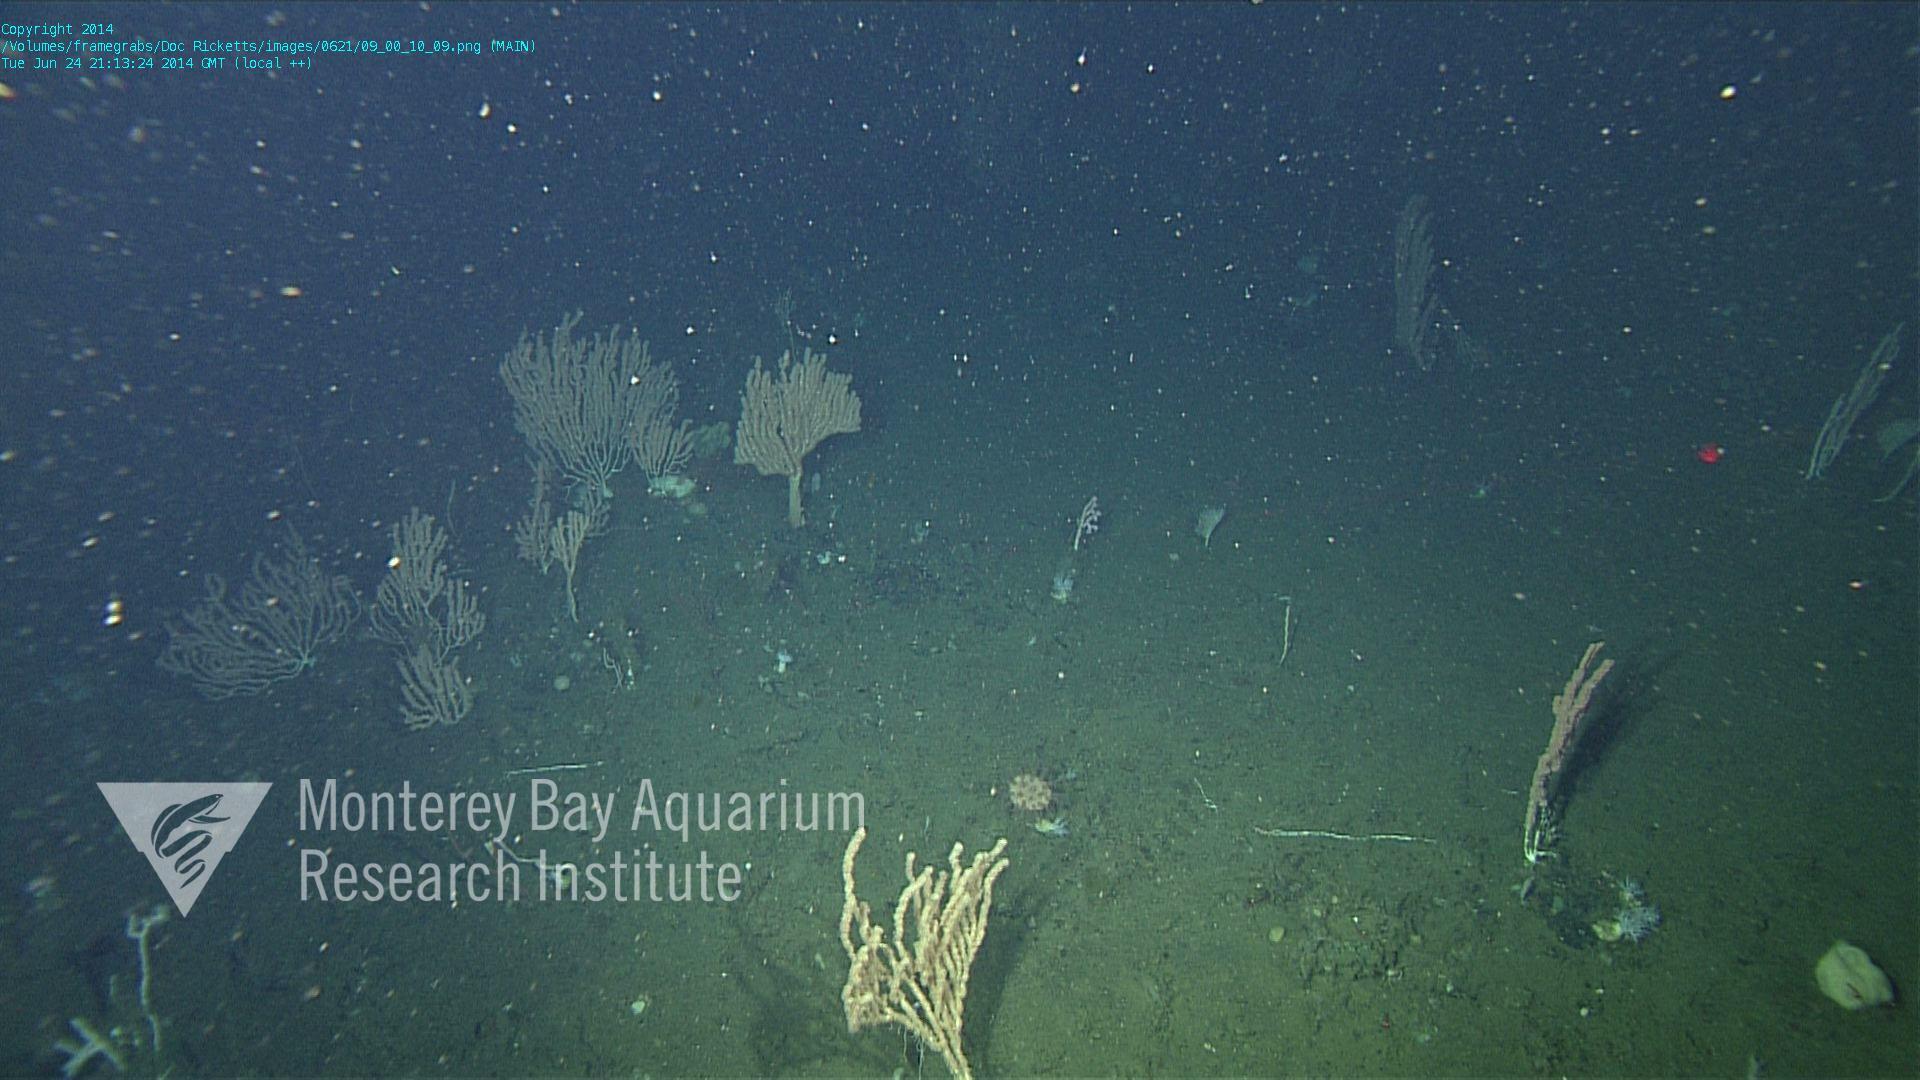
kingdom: Animalia
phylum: Cnidaria
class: Anthozoa
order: Scleralcyonacea
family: Coralliidae
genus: Heteropolypus
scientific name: Heteropolypus ritteri
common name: Ritter's soft coral
